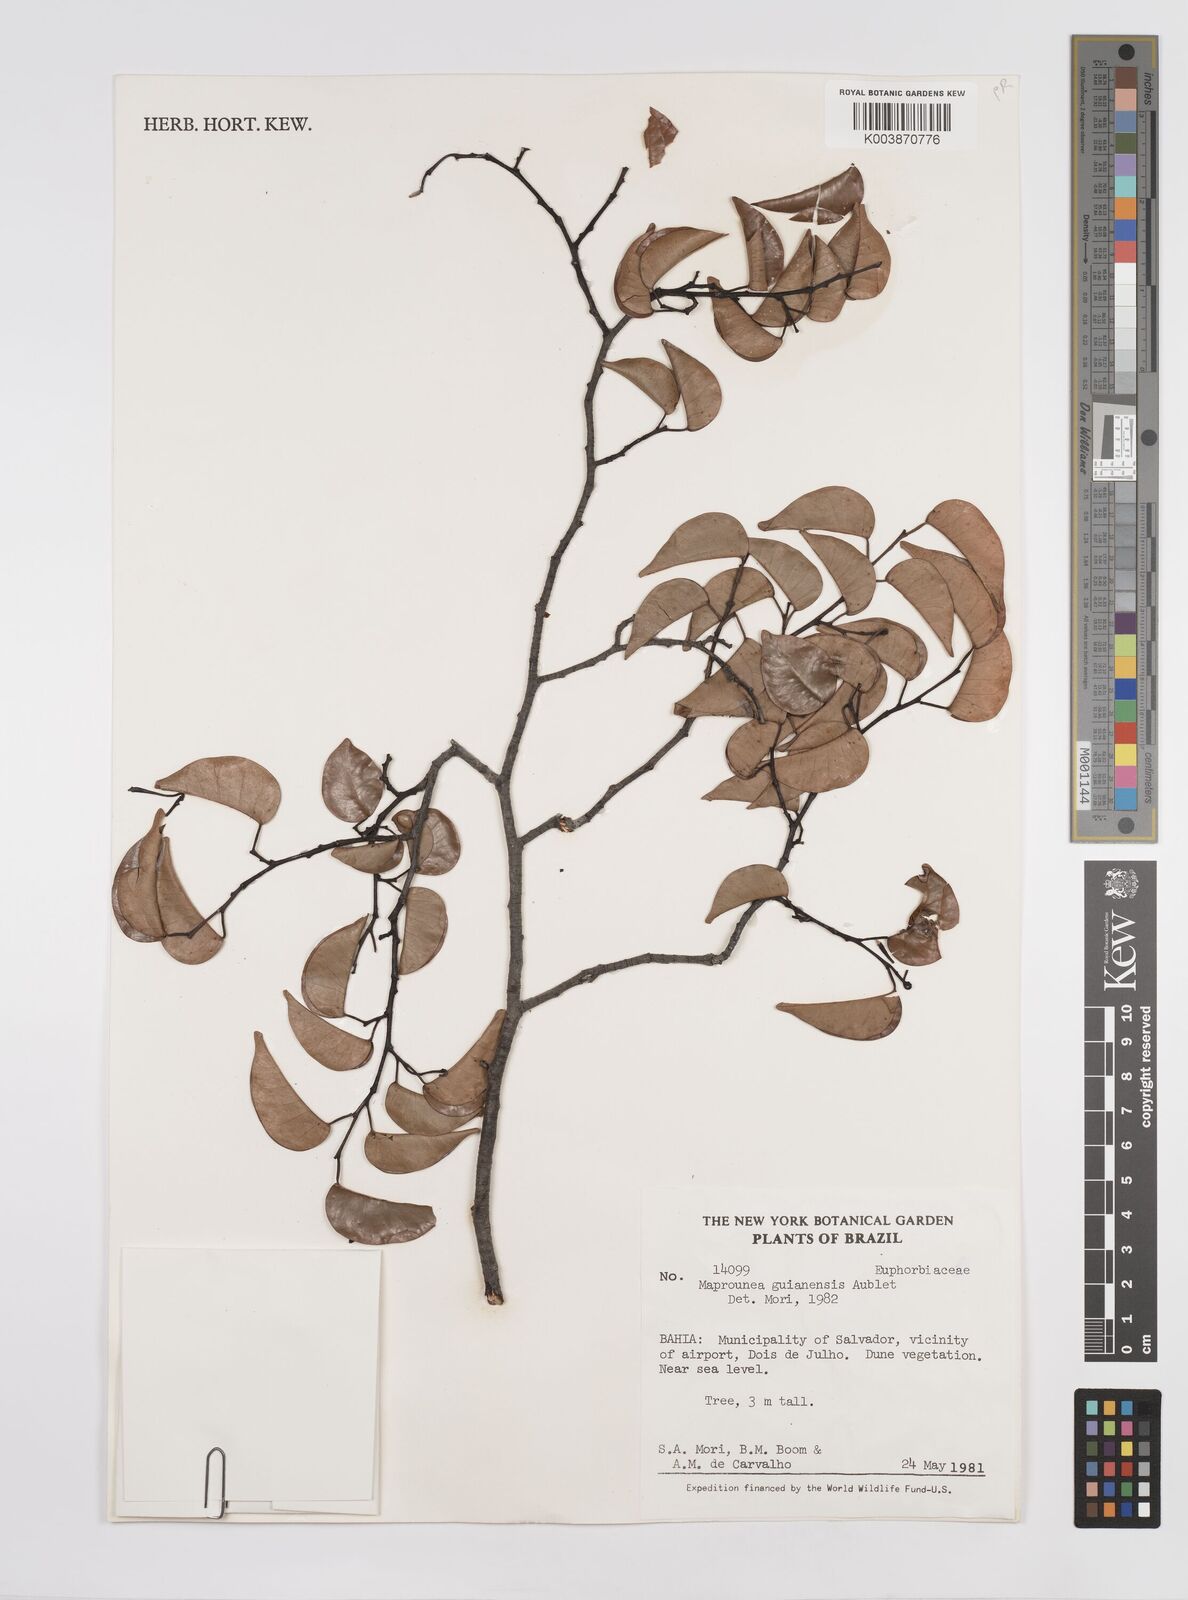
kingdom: Plantae
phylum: Tracheophyta
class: Magnoliopsida
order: Malpighiales
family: Euphorbiaceae
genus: Maprounea
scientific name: Maprounea guianensis
